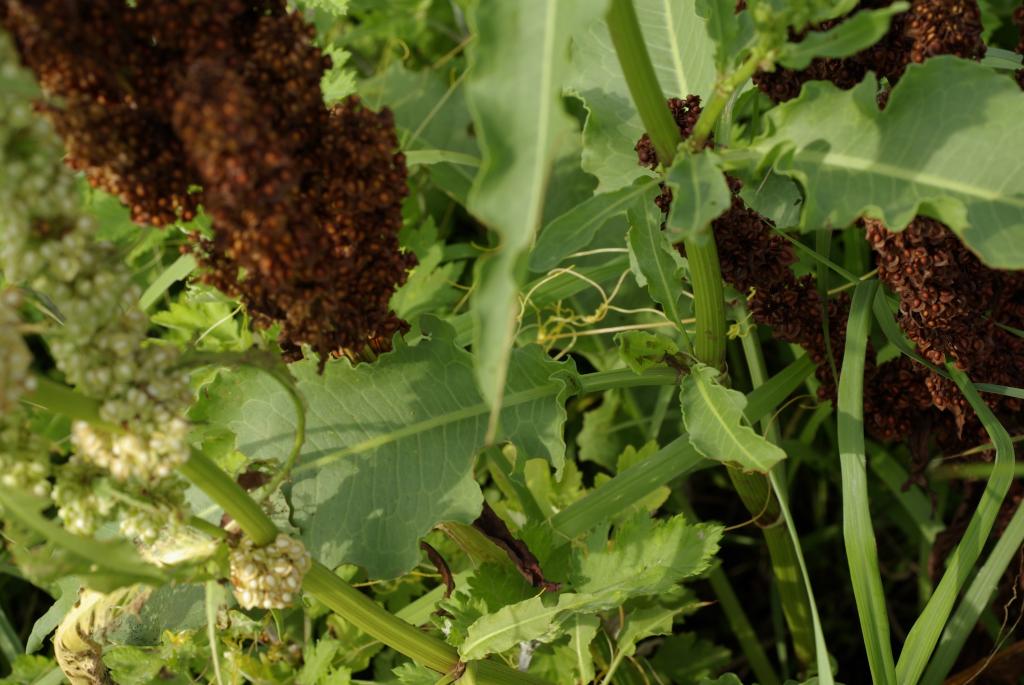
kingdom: Plantae
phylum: Tracheophyta
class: Magnoliopsida
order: Caryophyllales
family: Polygonaceae
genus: Rumex
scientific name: Rumex japonicus
